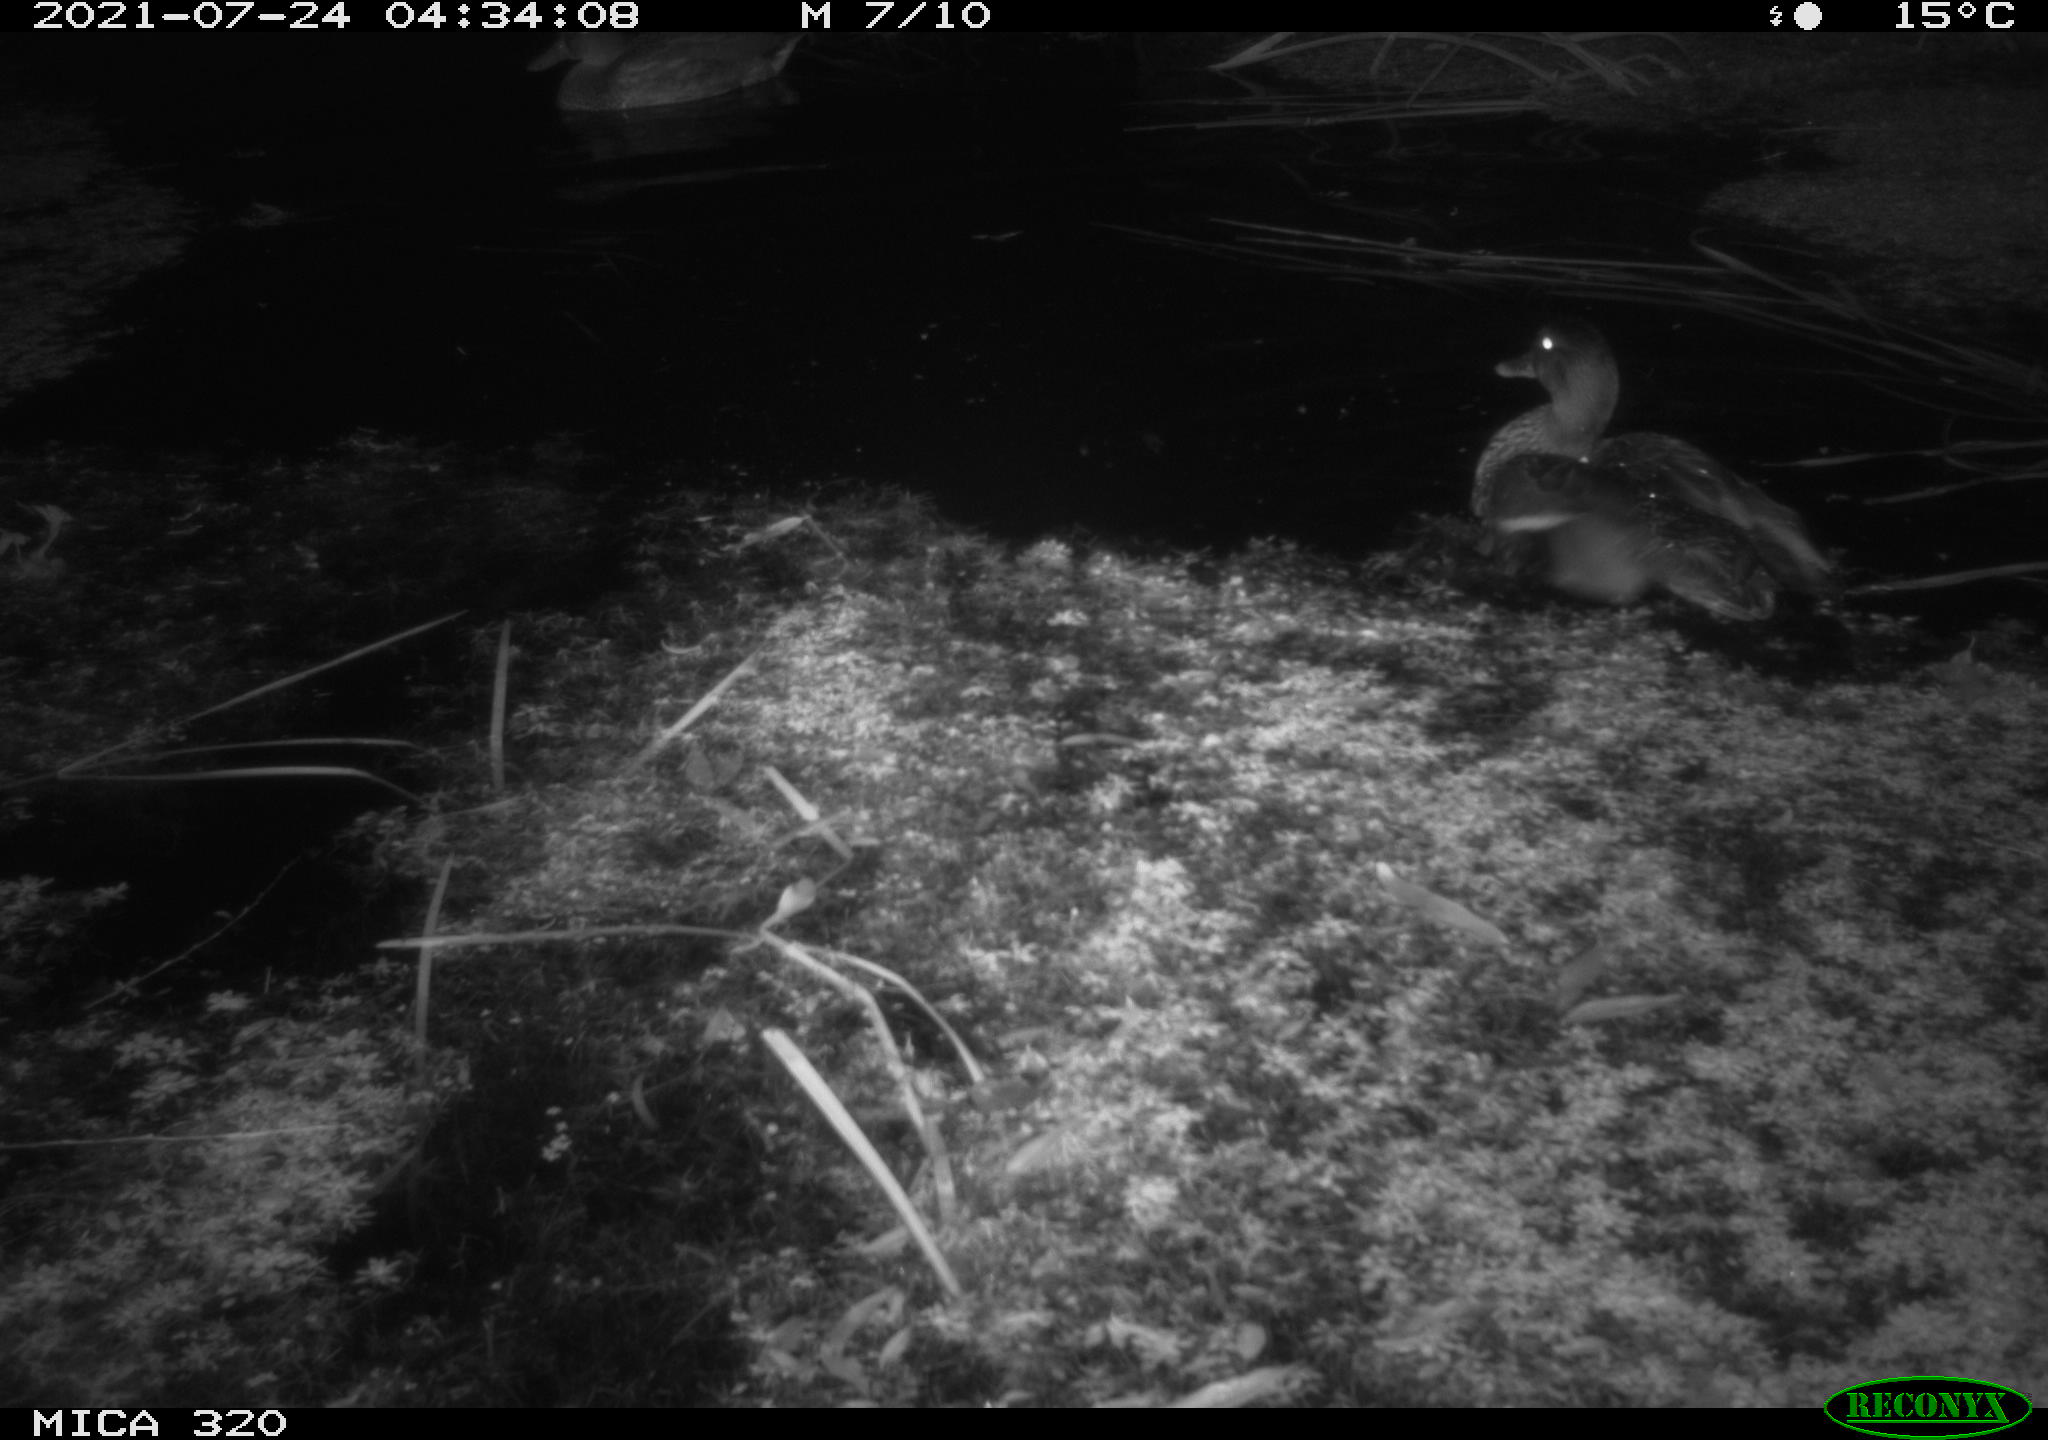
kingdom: Animalia
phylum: Chordata
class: Aves
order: Anseriformes
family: Anatidae
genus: Anas
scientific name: Anas platyrhynchos
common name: Mallard
